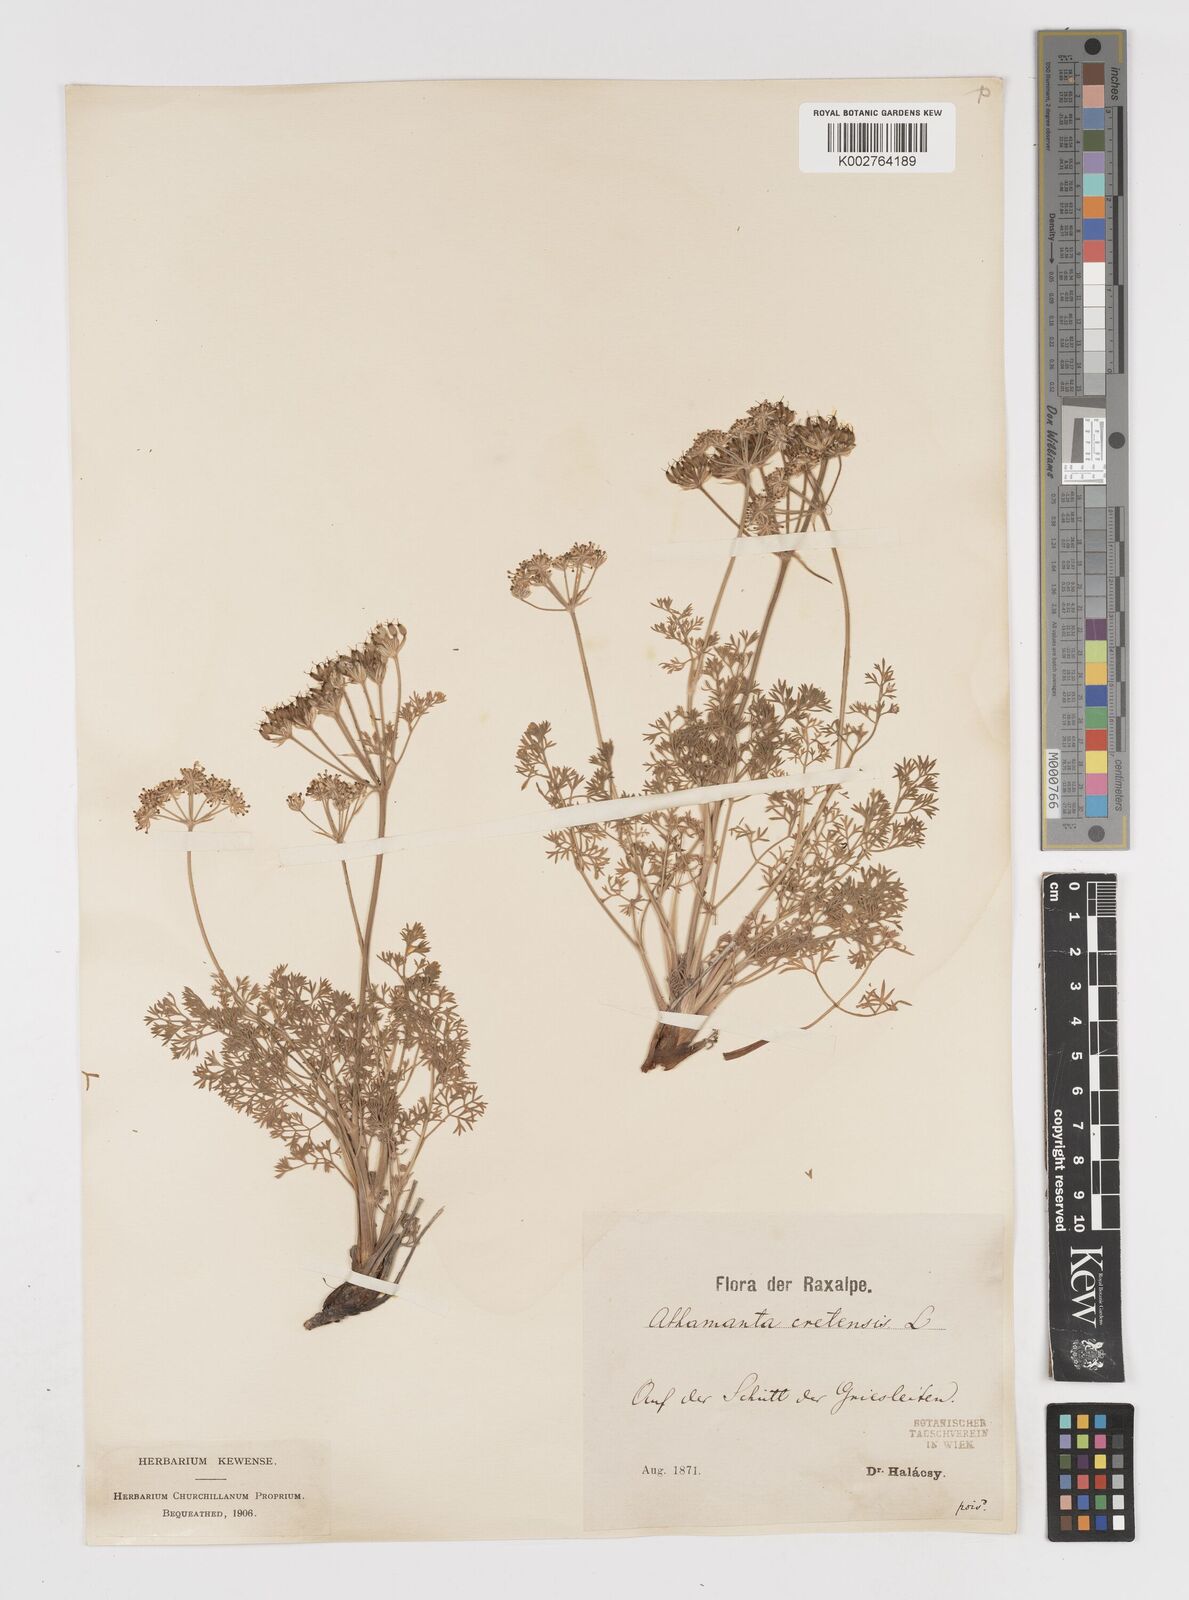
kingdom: Plantae
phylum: Tracheophyta
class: Magnoliopsida
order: Apiales
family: Apiaceae
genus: Athamanta
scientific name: Athamanta cretensis
